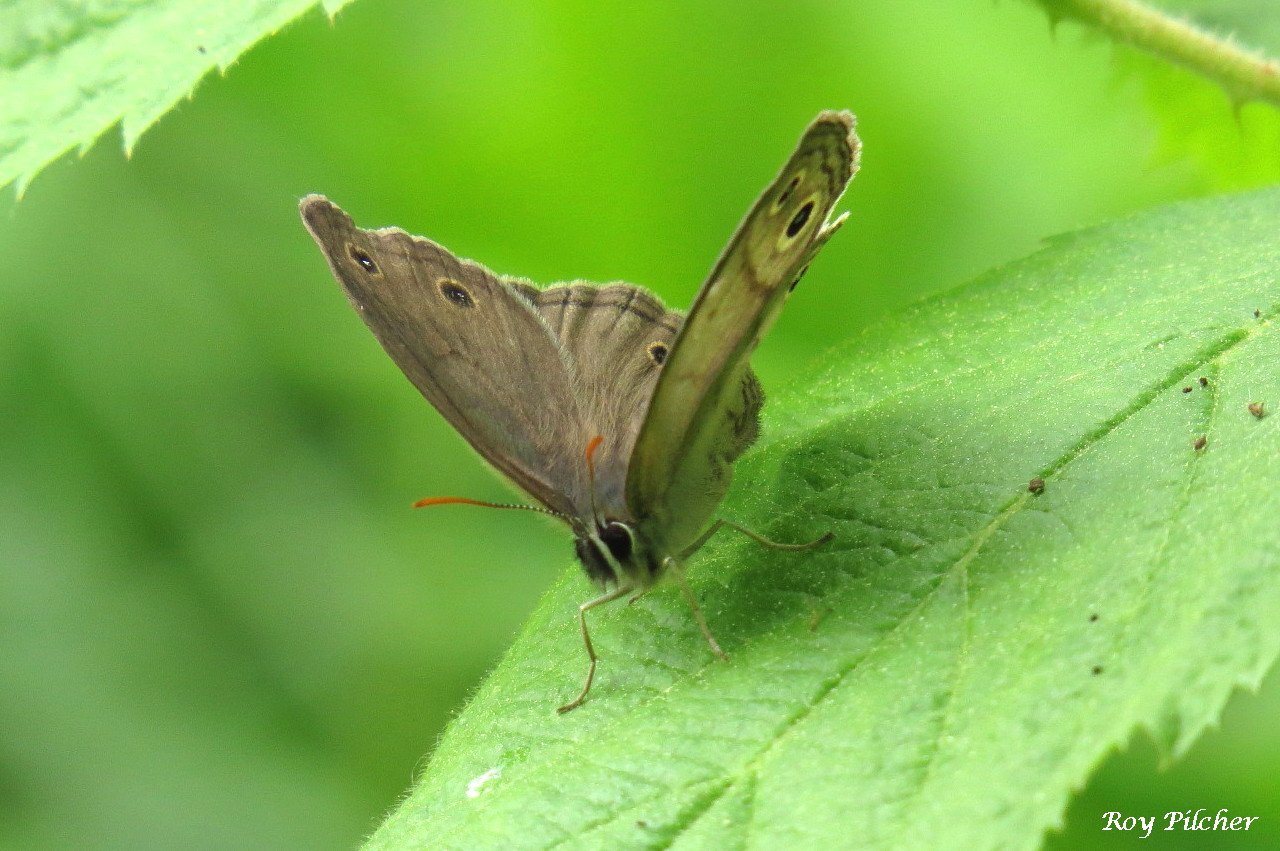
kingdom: Animalia
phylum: Arthropoda
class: Insecta
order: Lepidoptera
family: Nymphalidae
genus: Euptychia
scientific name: Euptychia cymela
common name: Little Wood Satyr
